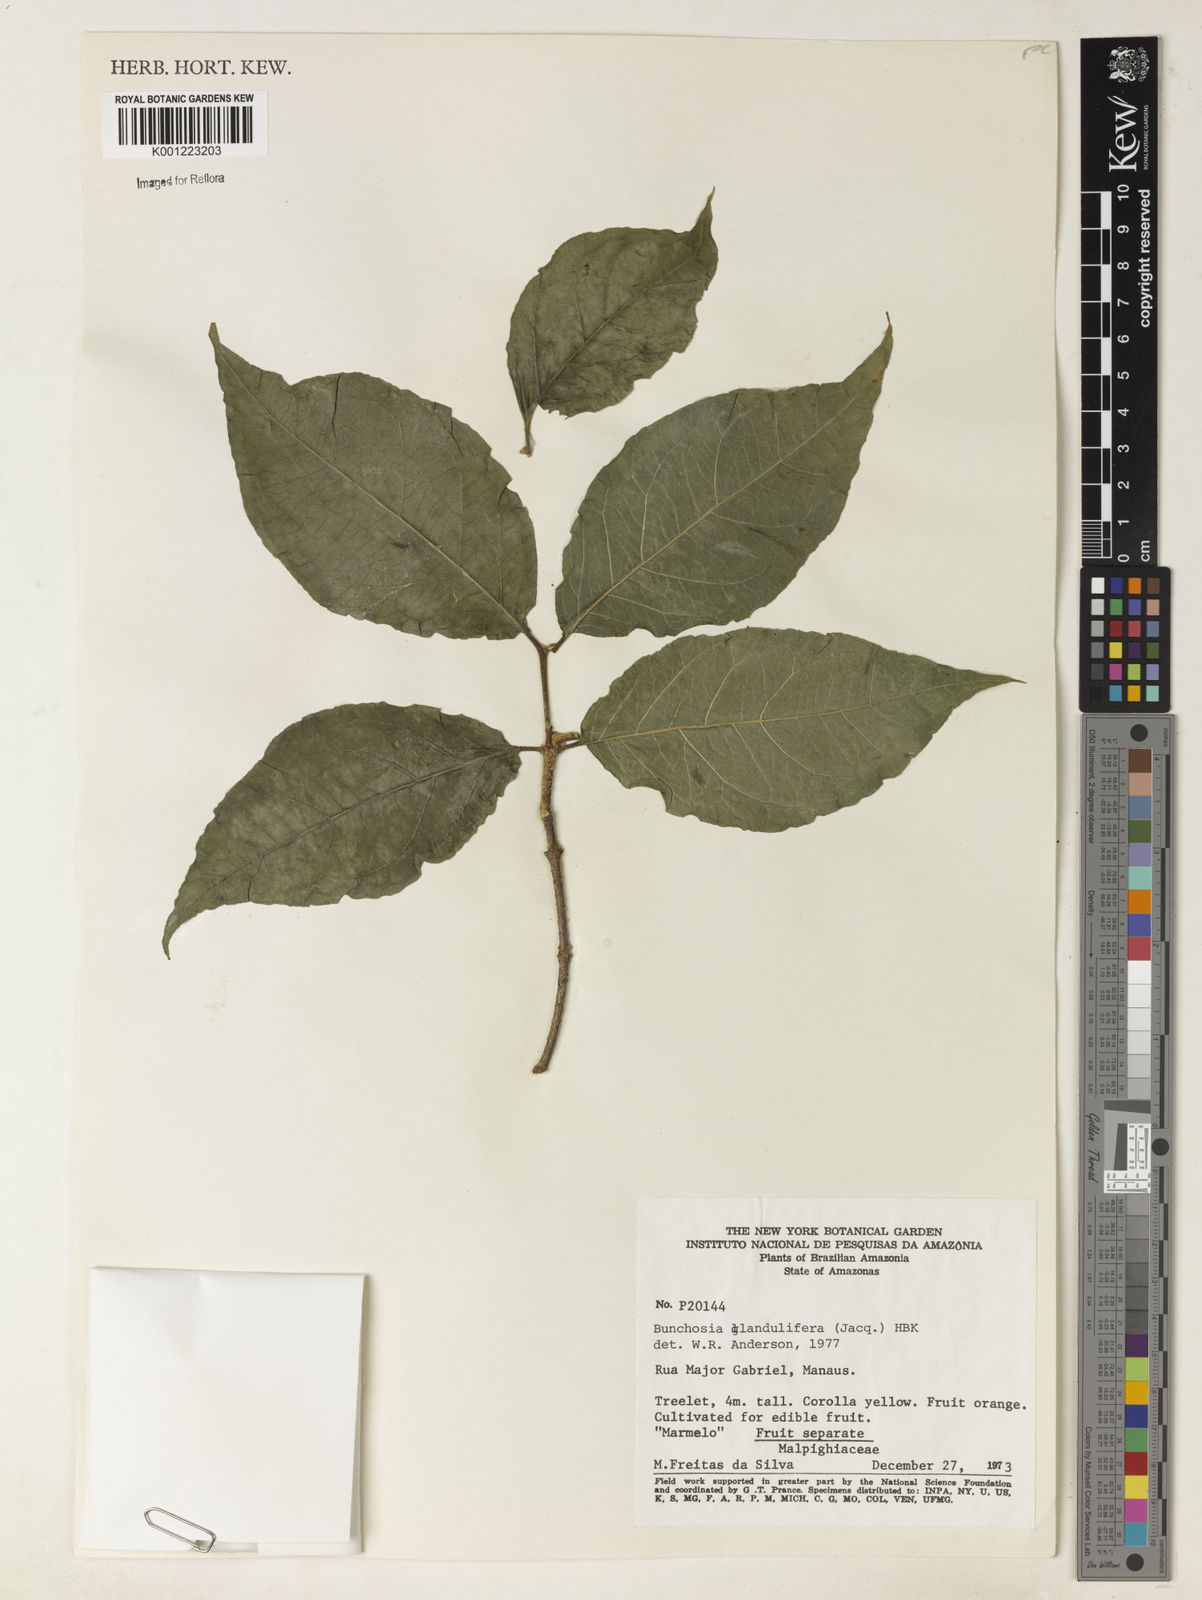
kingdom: Plantae
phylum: Tracheophyta
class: Magnoliopsida
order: Malpighiales
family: Malpighiaceae
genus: Bunchosia
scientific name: Bunchosia glandulifera
